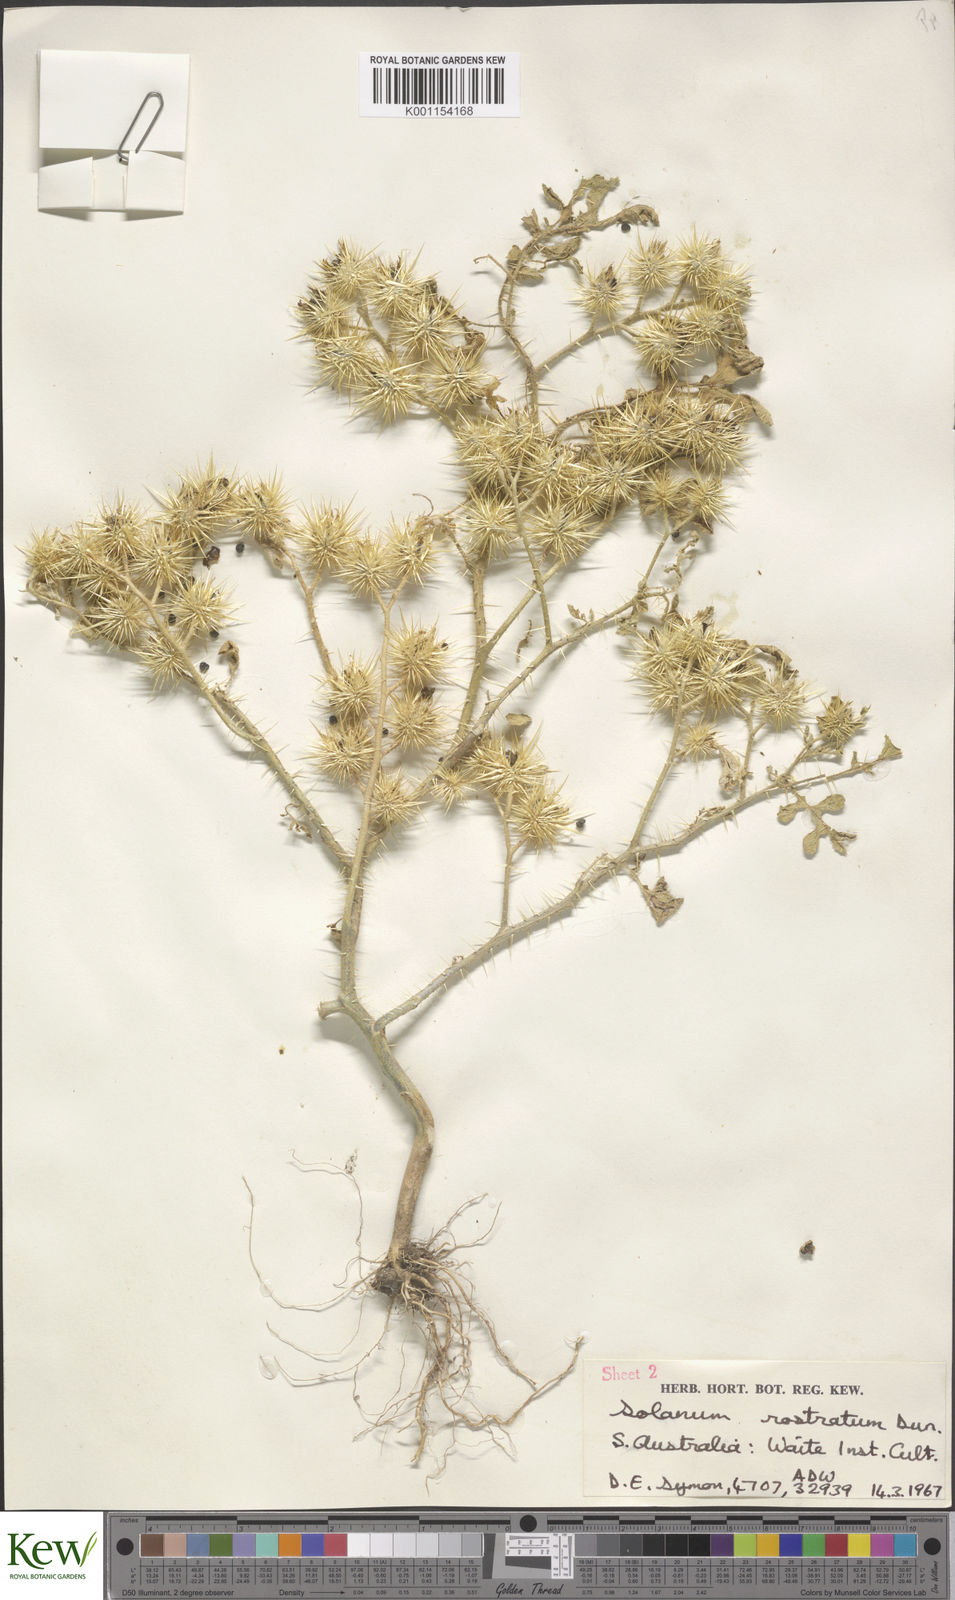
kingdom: Plantae
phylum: Tracheophyta
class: Magnoliopsida
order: Solanales
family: Solanaceae
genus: Solanum
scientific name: Solanum angustifolium
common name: Buffalobur nightshade
